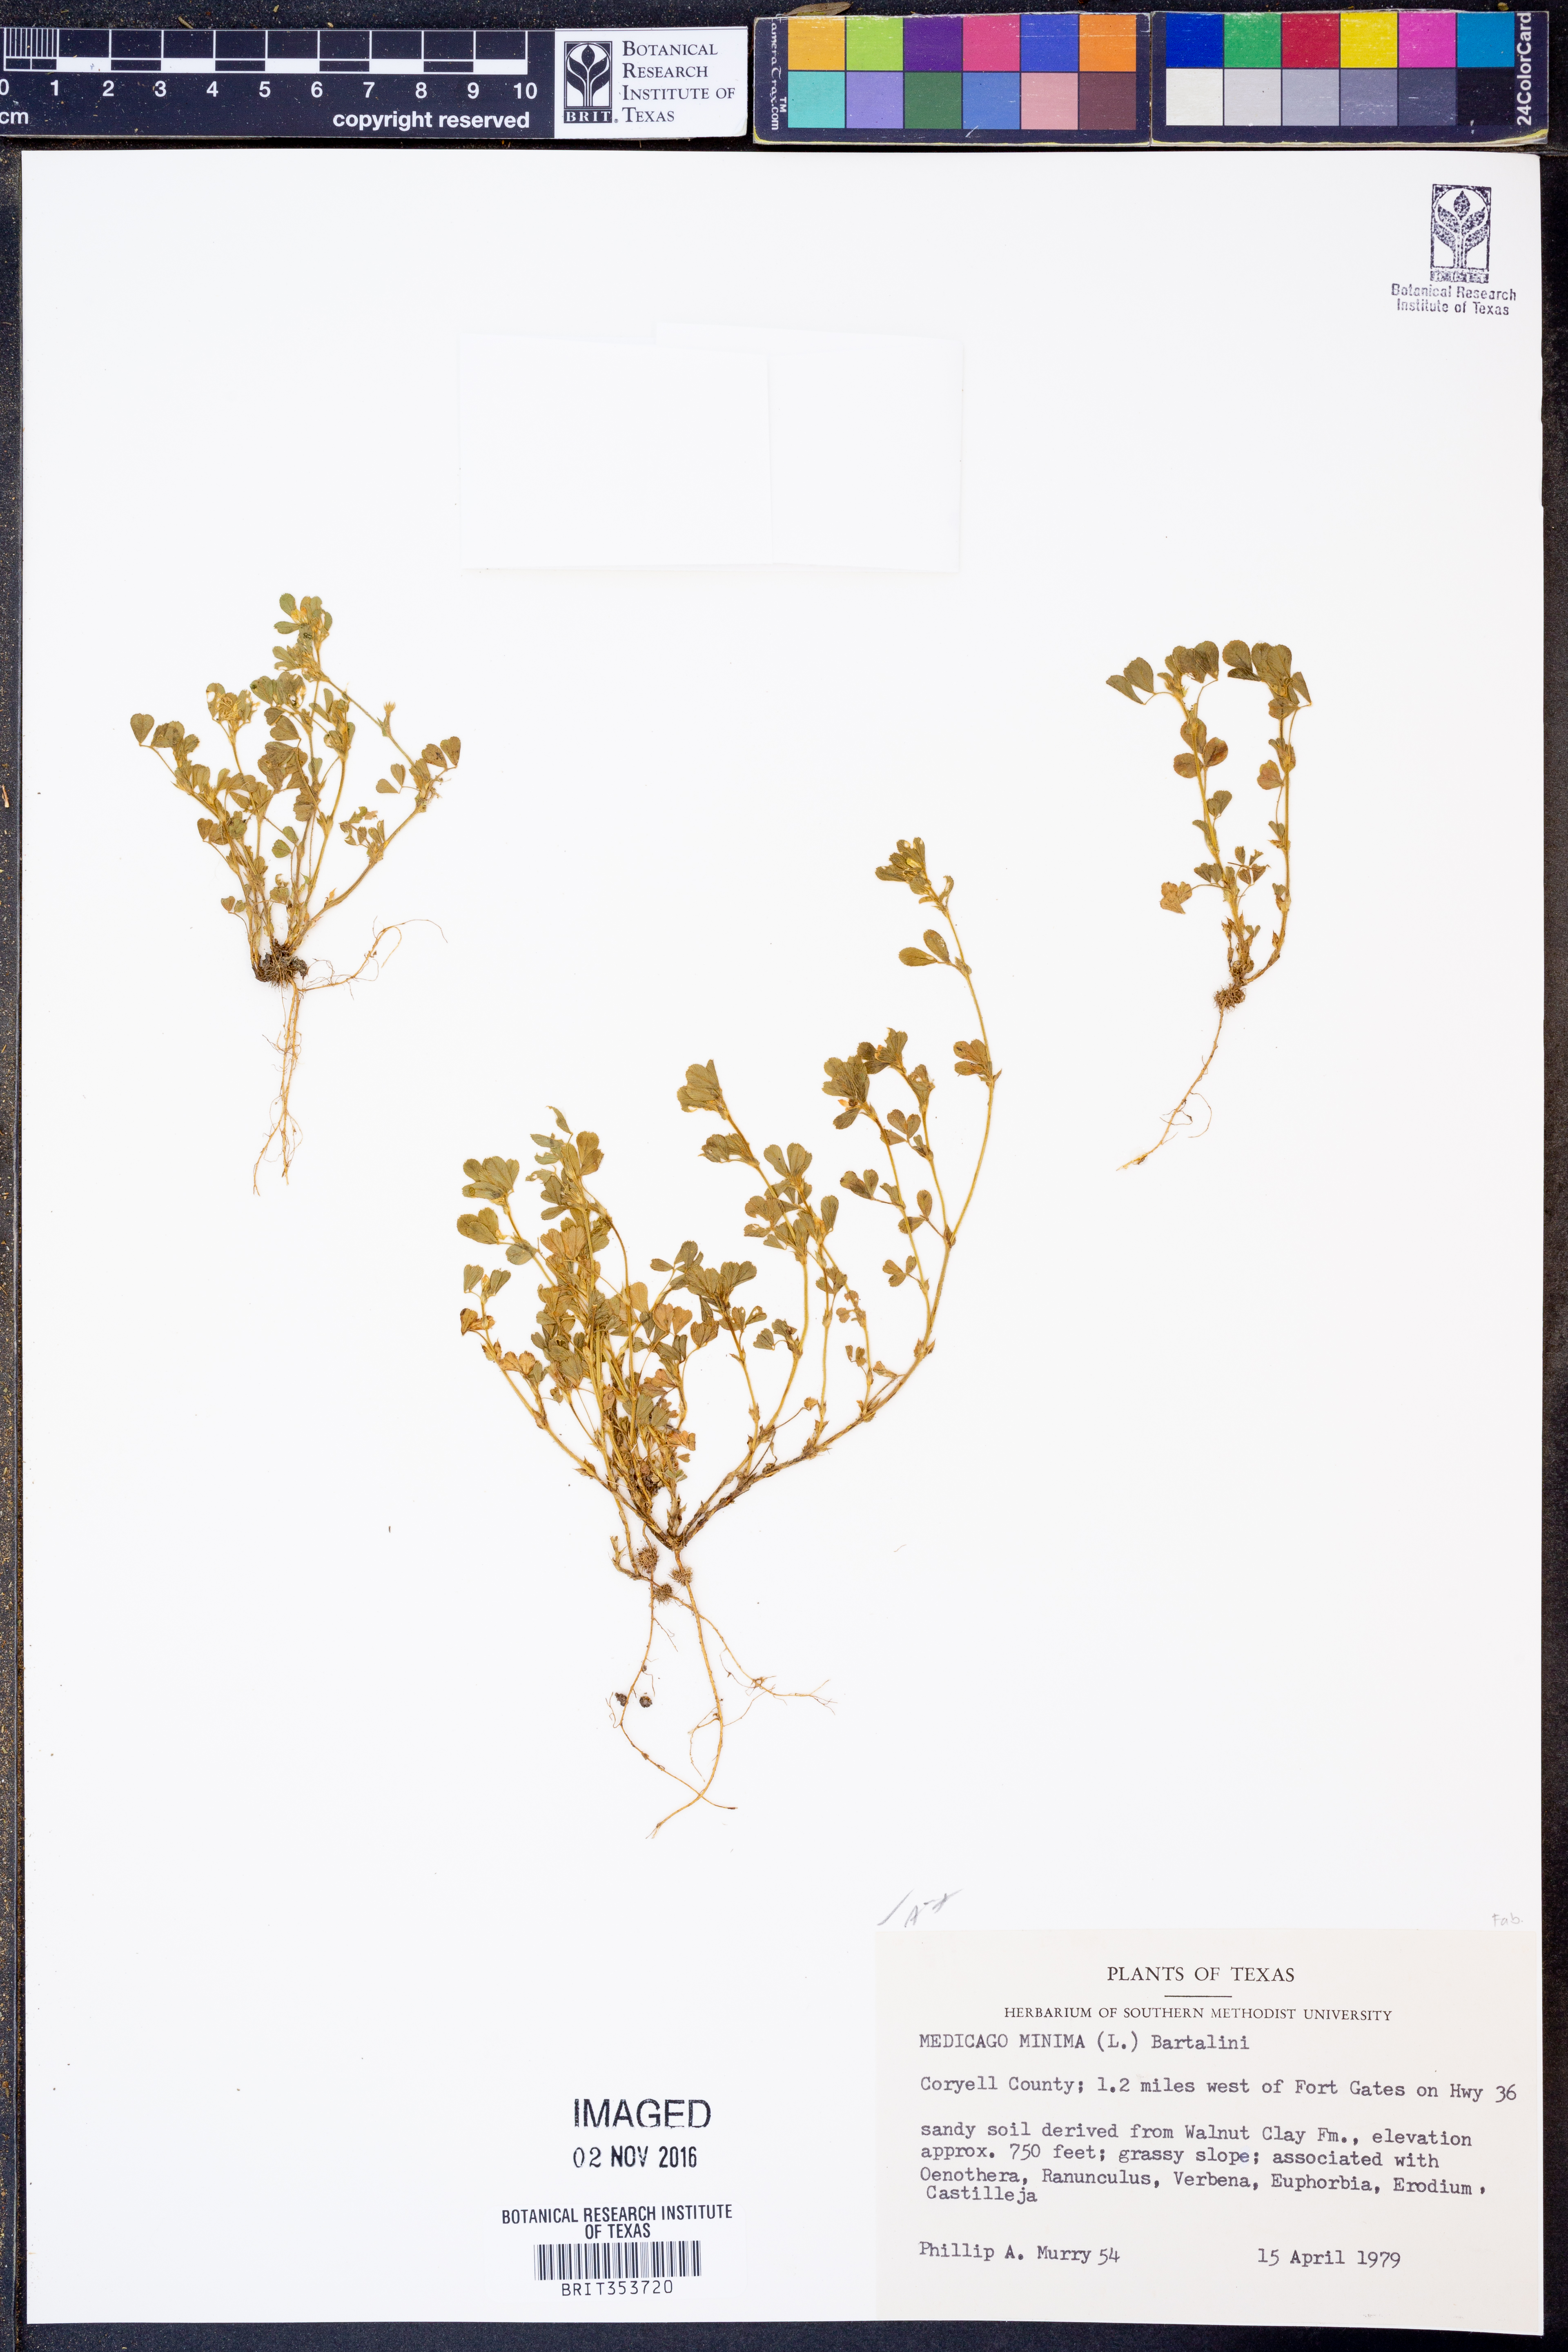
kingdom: Plantae
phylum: Tracheophyta
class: Magnoliopsida
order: Fabales
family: Fabaceae
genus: Medicago
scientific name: Medicago minima
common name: Little bur-clover
